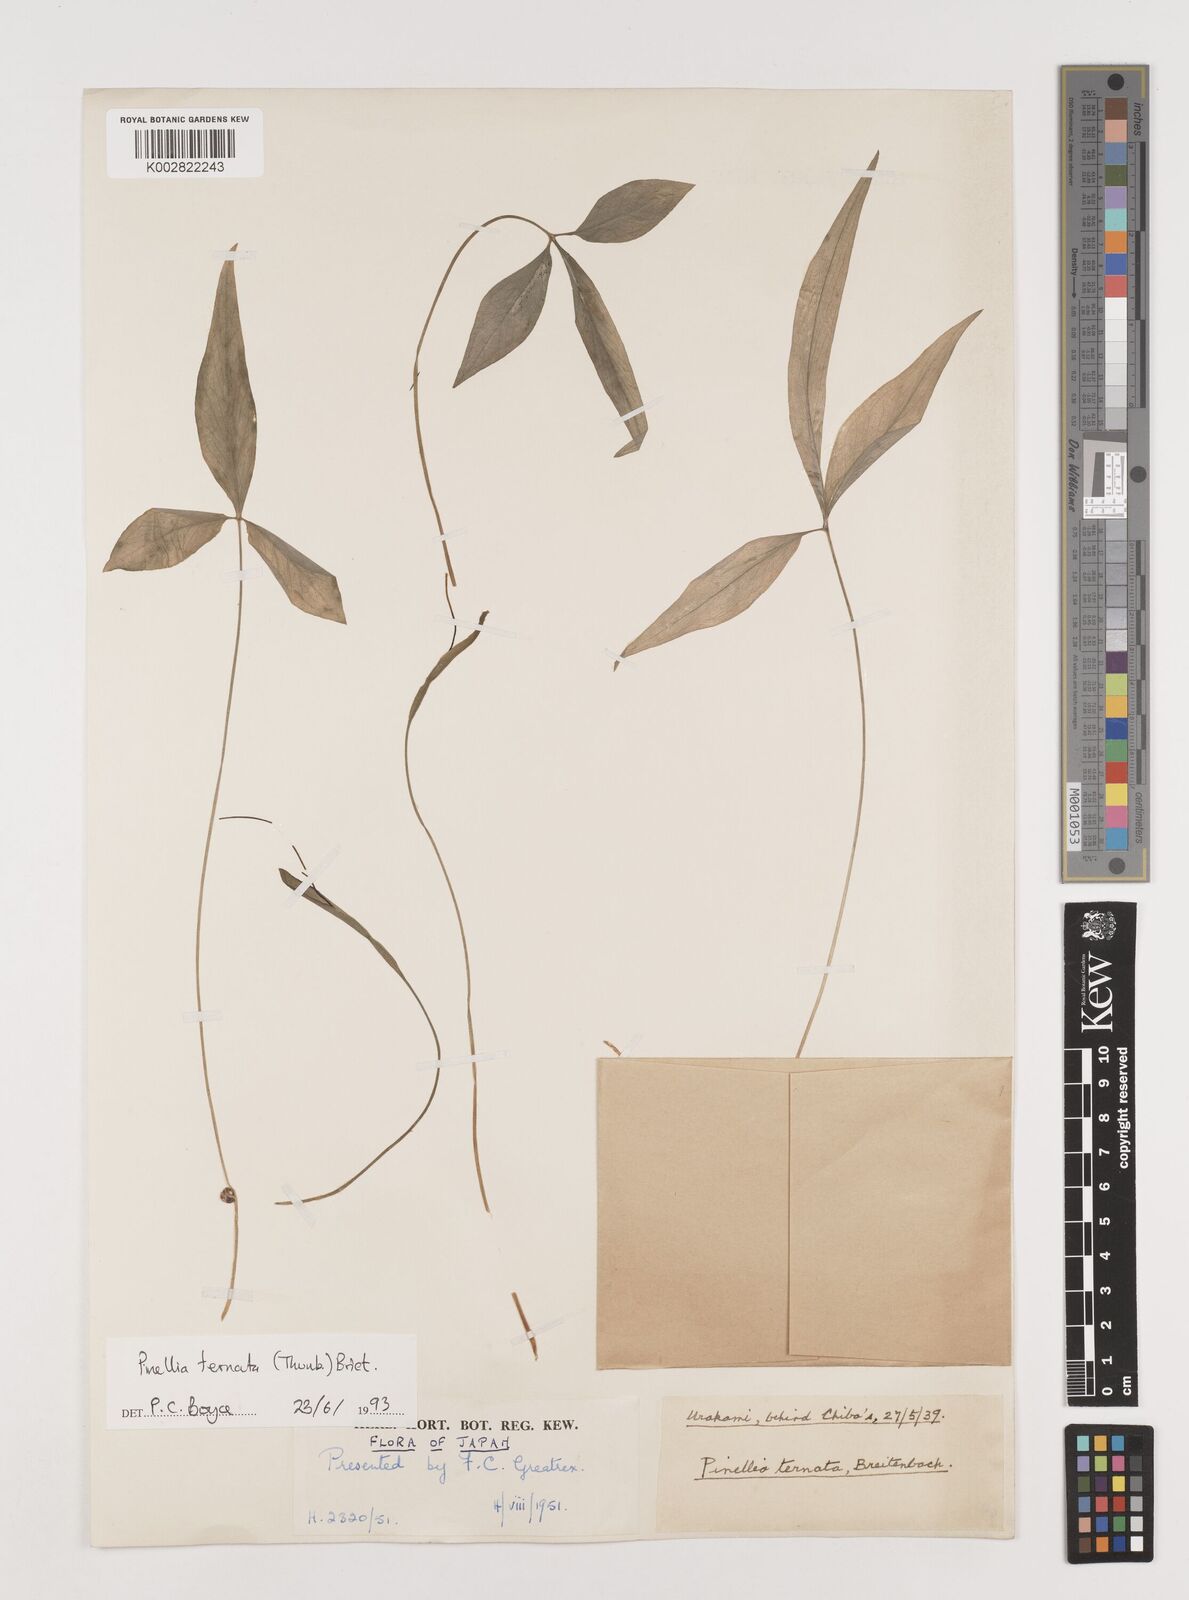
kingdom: Plantae
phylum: Tracheophyta
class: Liliopsida
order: Alismatales
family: Araceae
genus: Pinellia
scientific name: Pinellia ternata
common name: Pinellia
